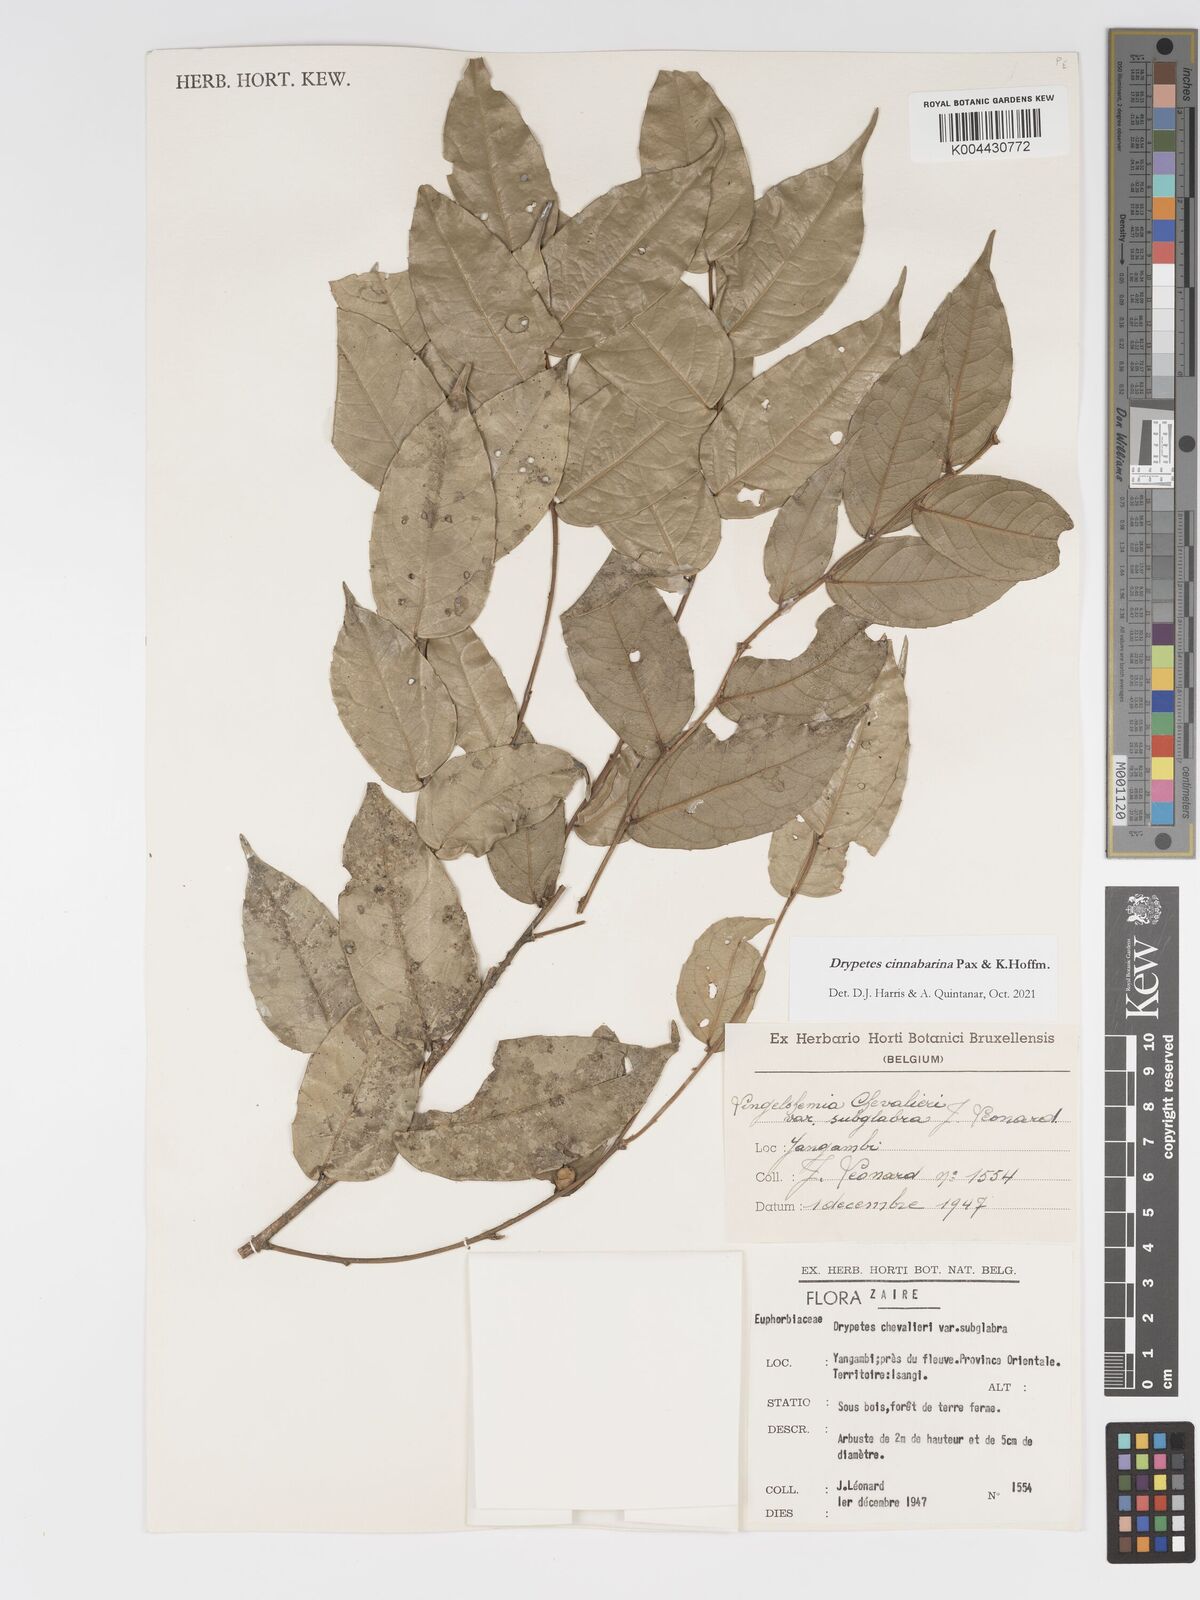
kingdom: Plantae
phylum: Tracheophyta
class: Magnoliopsida
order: Malpighiales
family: Putranjivaceae
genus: Drypetes
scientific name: Drypetes cinnabarina
